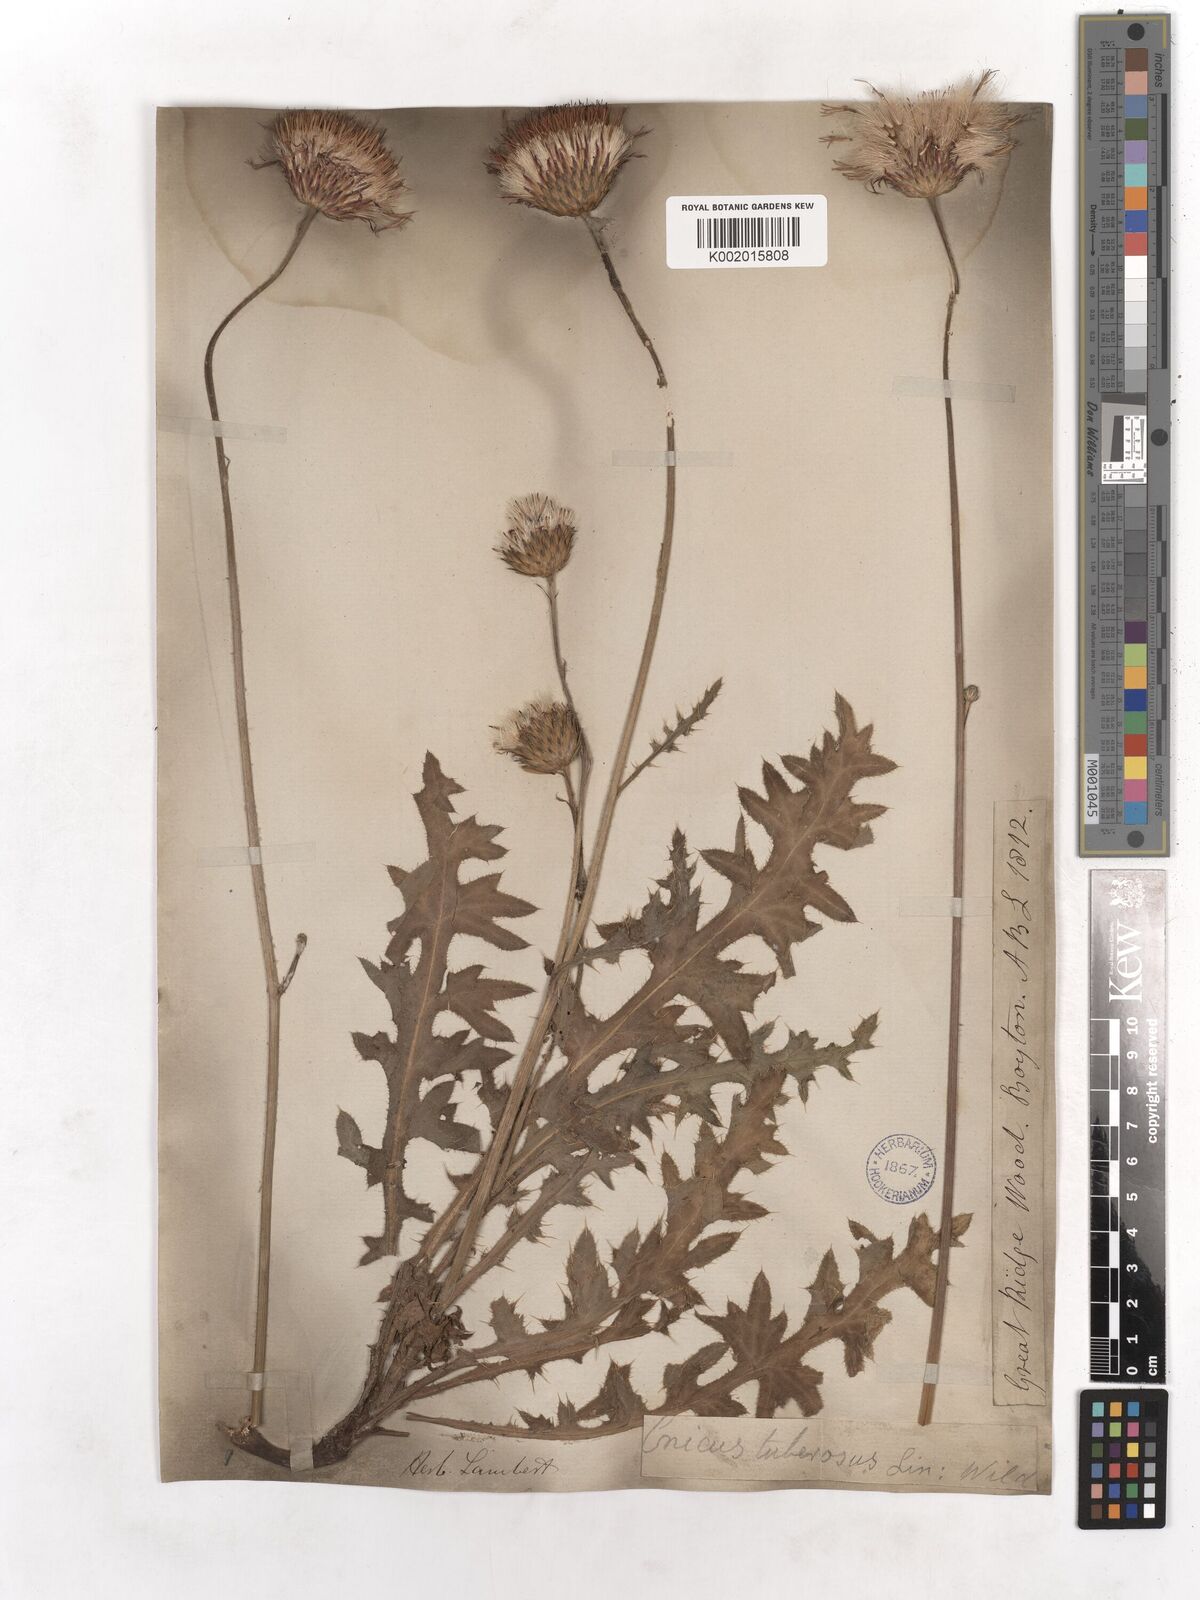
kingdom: Plantae
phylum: Tracheophyta
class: Magnoliopsida
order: Asterales
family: Asteraceae
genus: Cirsium
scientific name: Cirsium tuberosum
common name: Tuberous thistle
